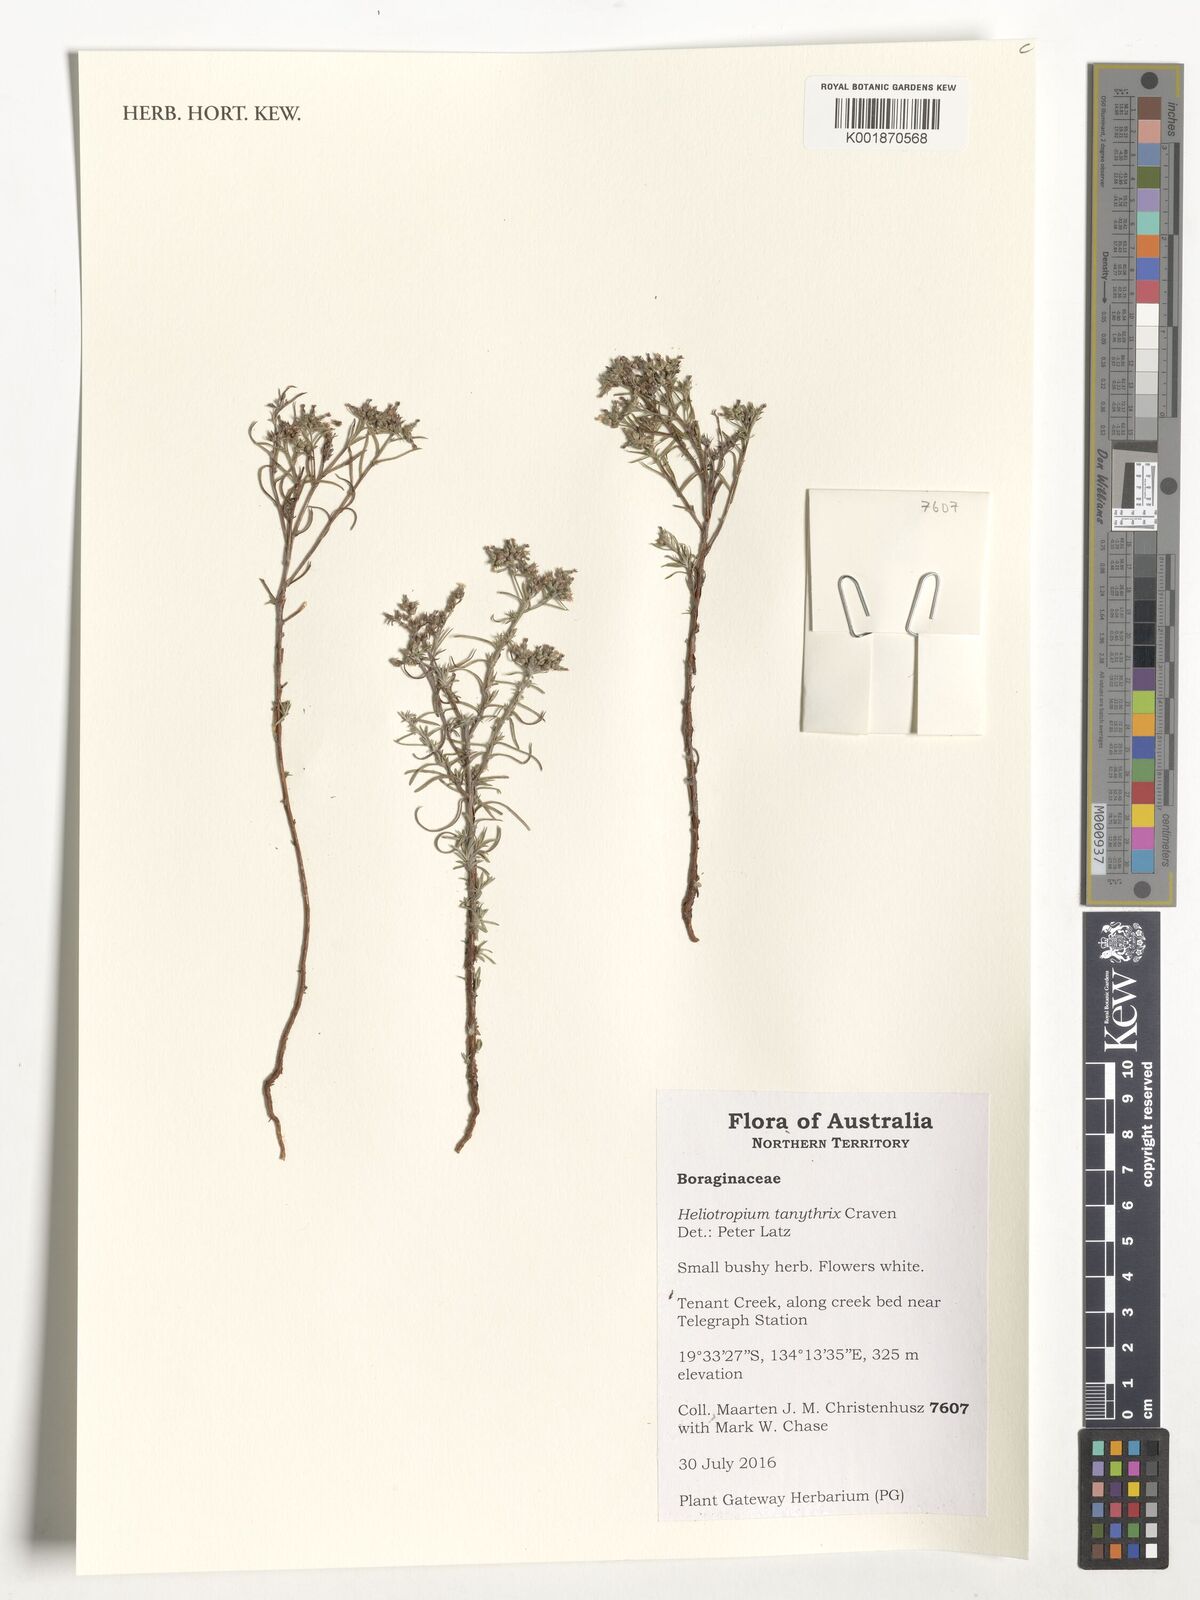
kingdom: Plantae
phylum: Tracheophyta
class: Magnoliopsida
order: Boraginales
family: Heliotropiaceae
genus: Euploca
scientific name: Euploca tanythrix
